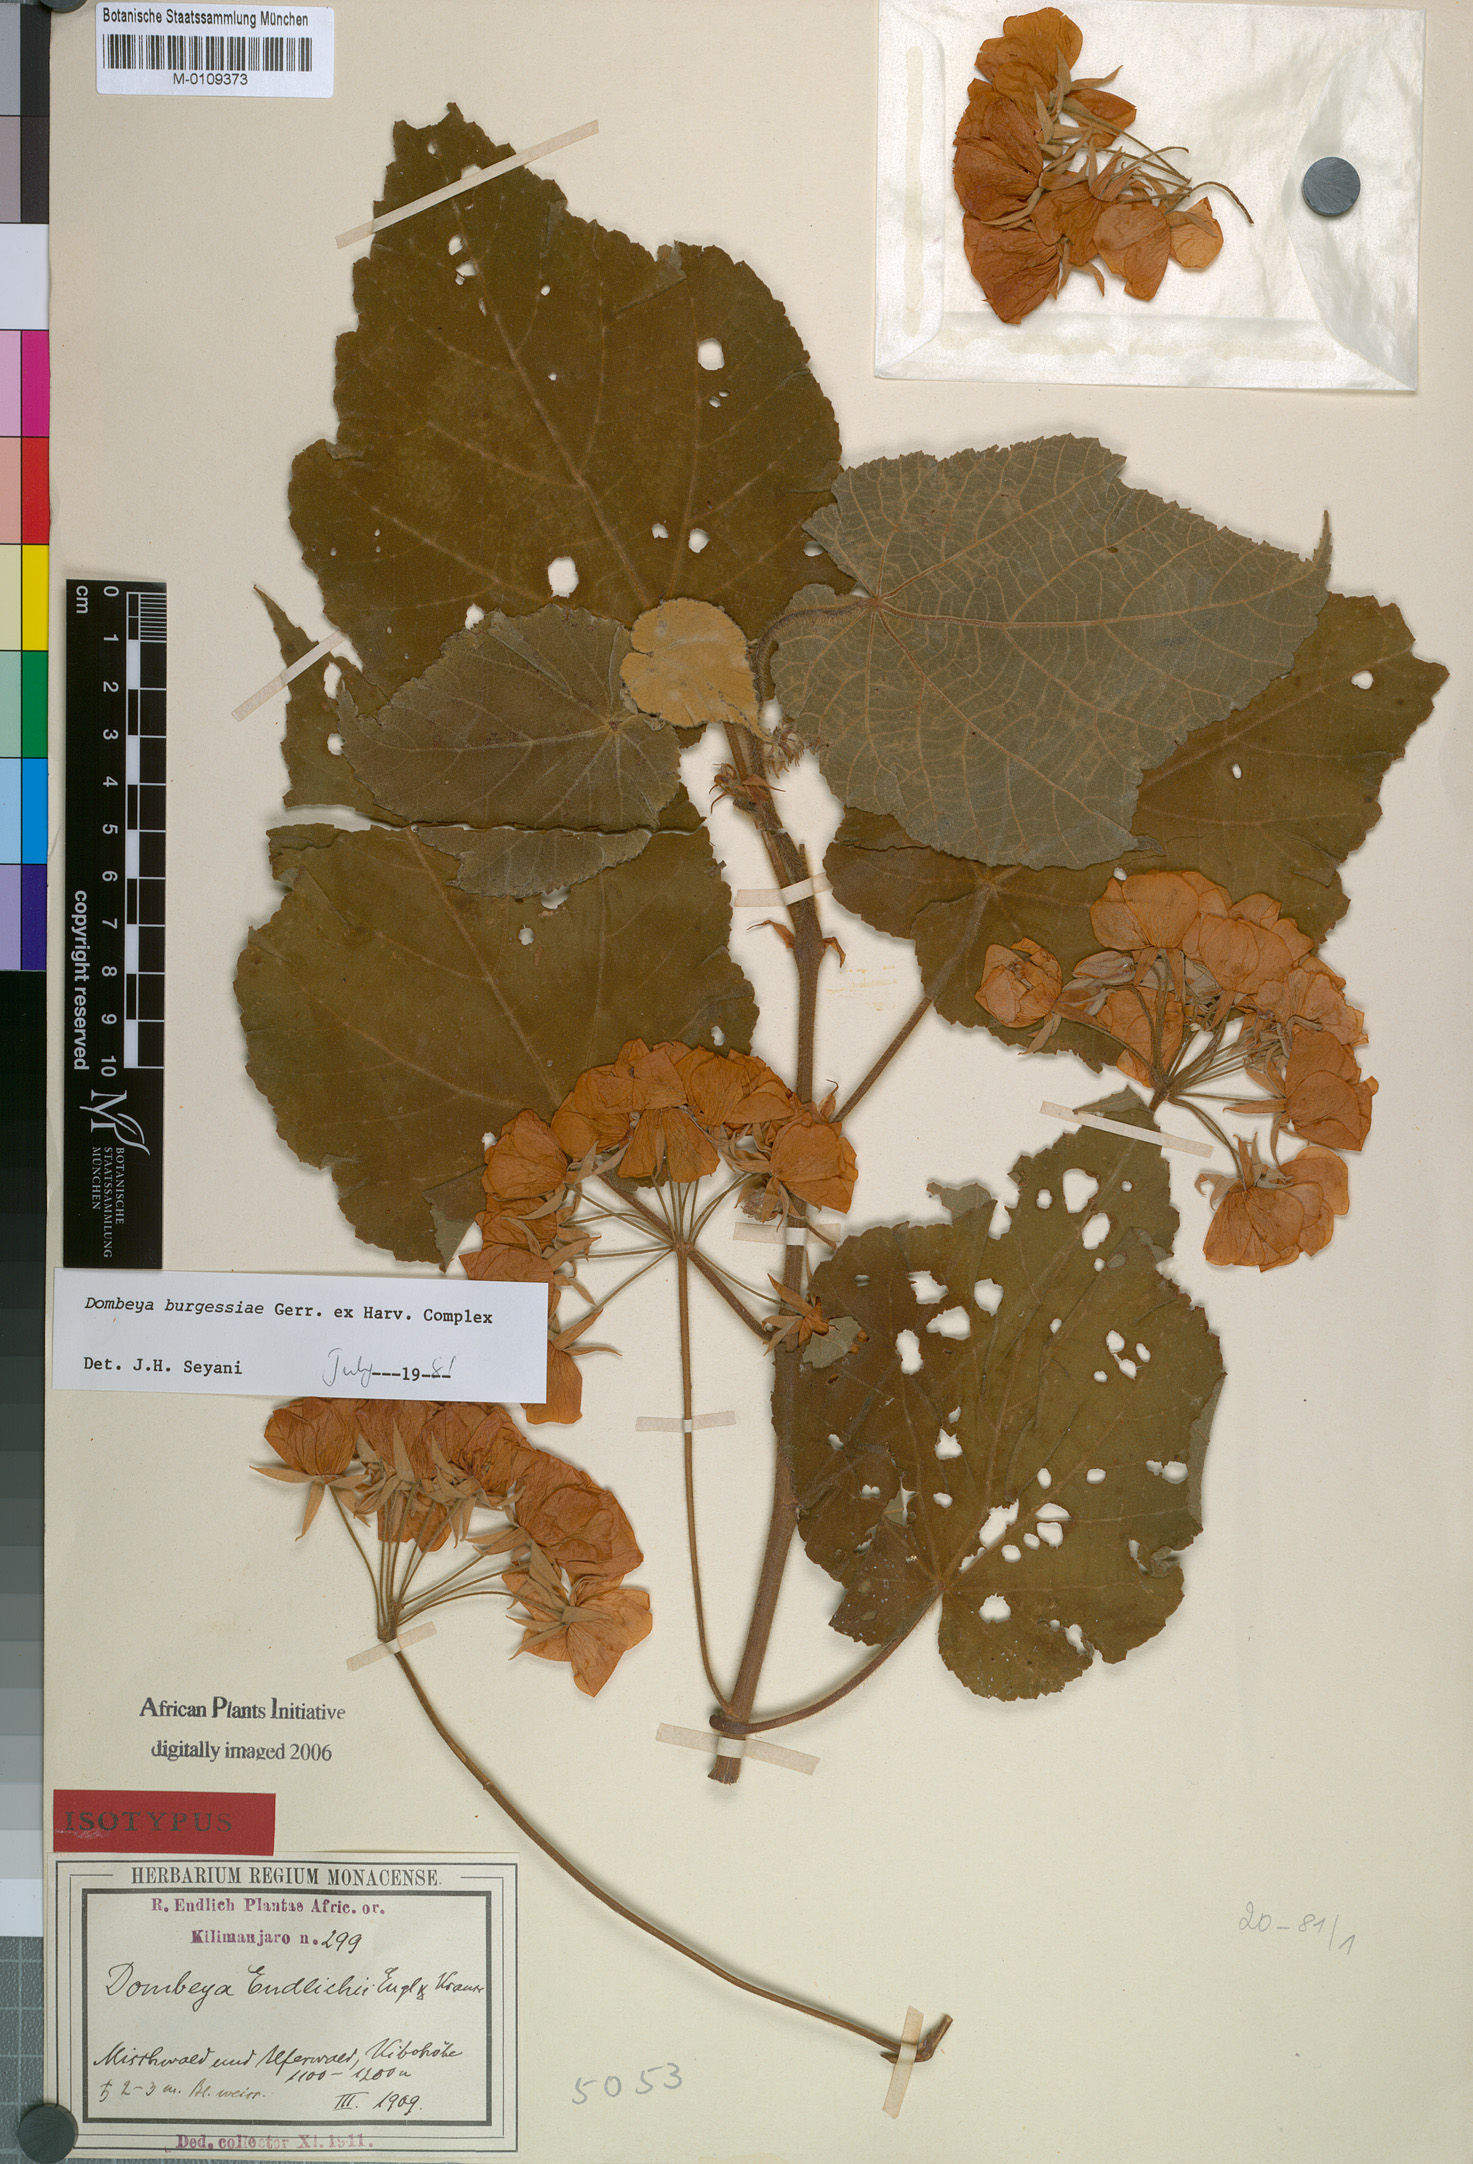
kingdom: Plantae
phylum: Tracheophyta
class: Magnoliopsida
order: Malvales
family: Malvaceae
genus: Dombeya
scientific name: Dombeya burgessiae
